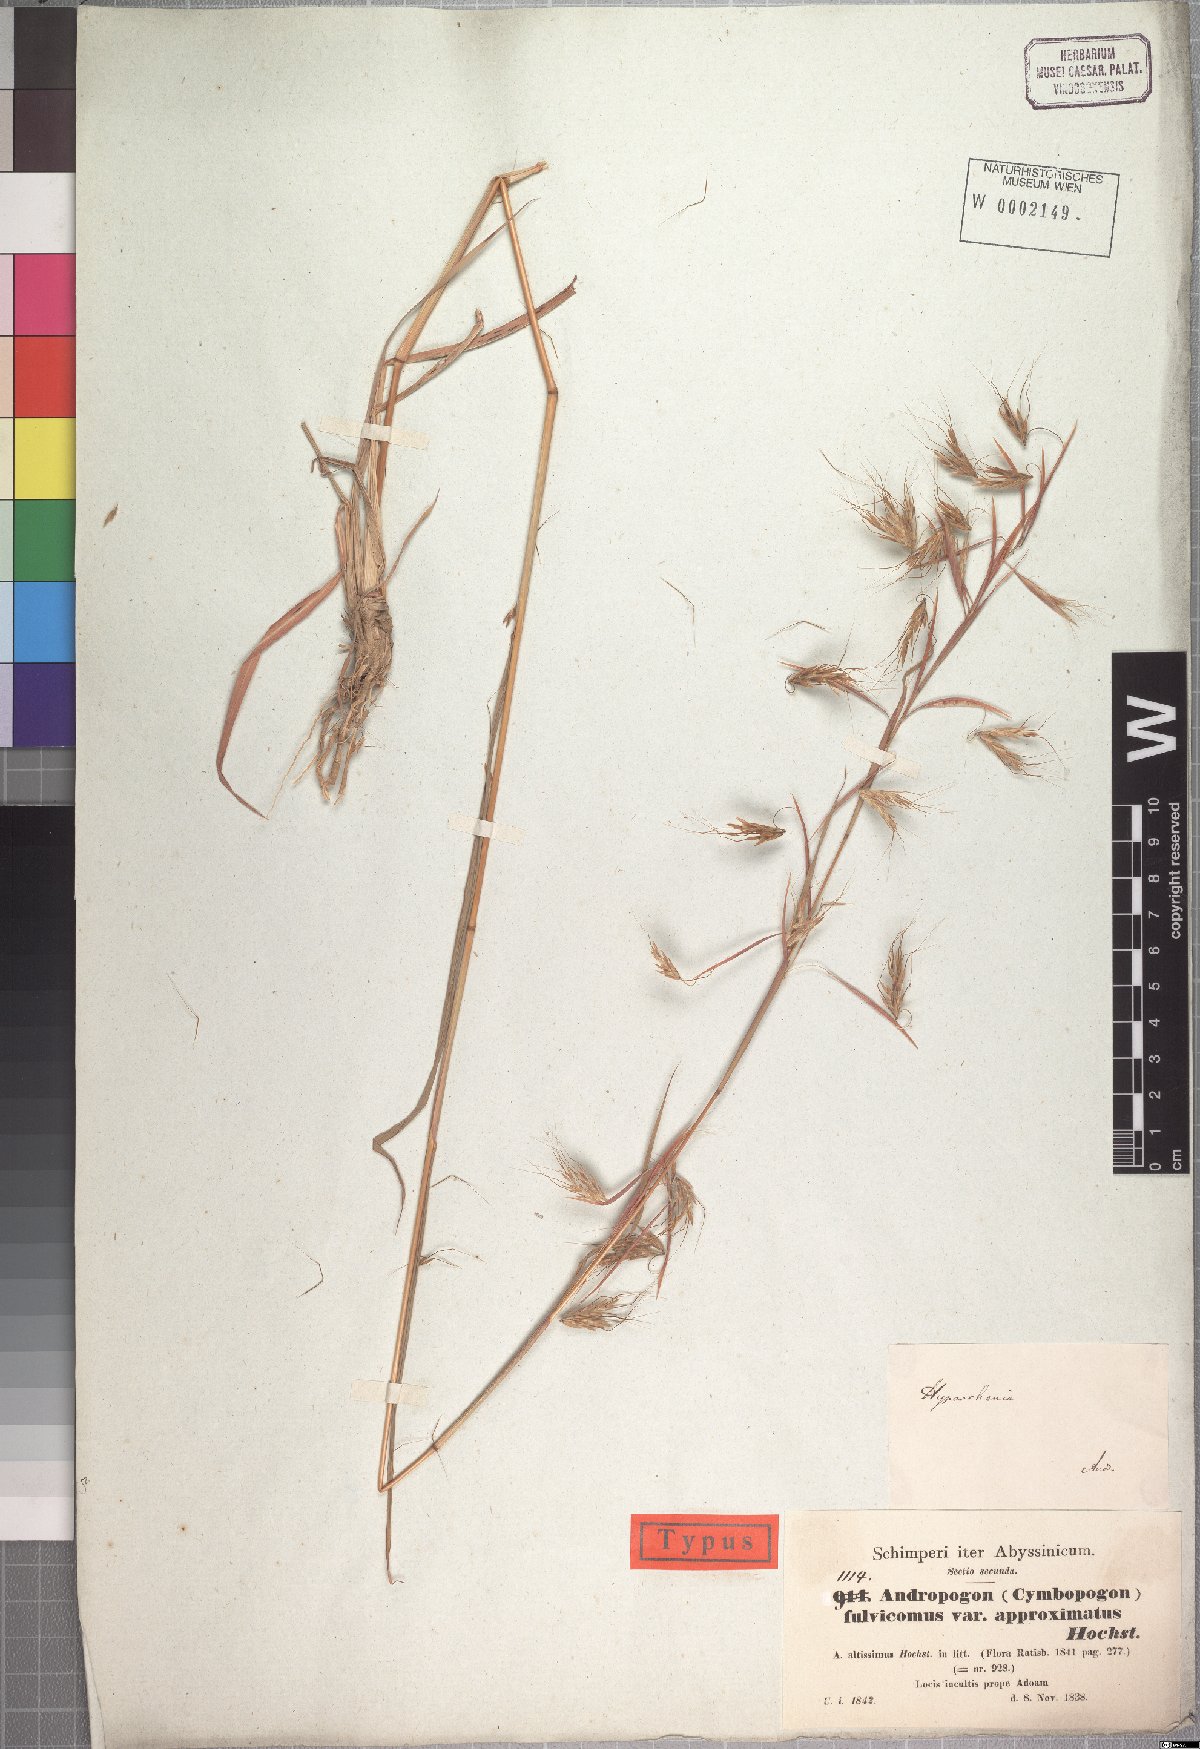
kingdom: Plantae
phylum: Tracheophyta
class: Liliopsida
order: Poales
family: Poaceae
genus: Hyparrhenia
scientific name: Hyparrhenia rufa
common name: Jaraguagrass
